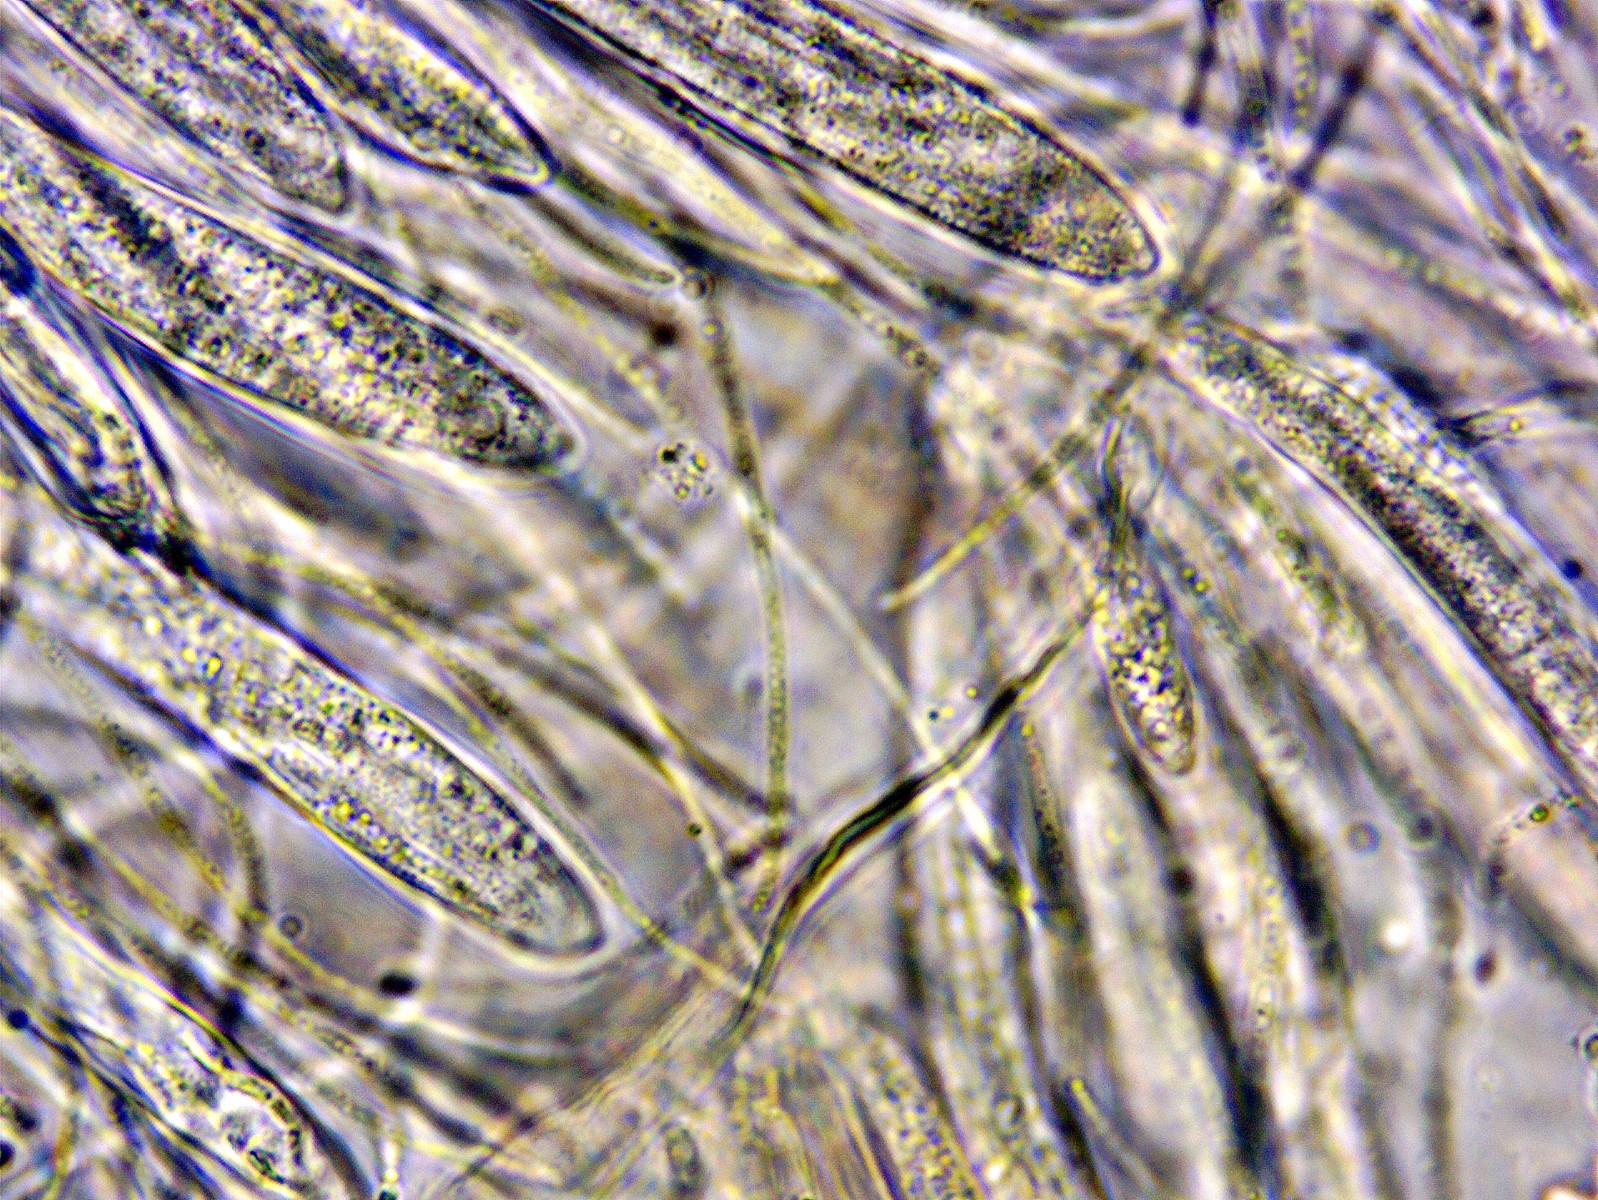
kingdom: Fungi
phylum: Ascomycota
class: Leotiomycetes
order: Rhytismatales
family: Rhytismataceae
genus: Lophodermium
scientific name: Lophodermium arundinaceum
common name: almindelig fureplet
